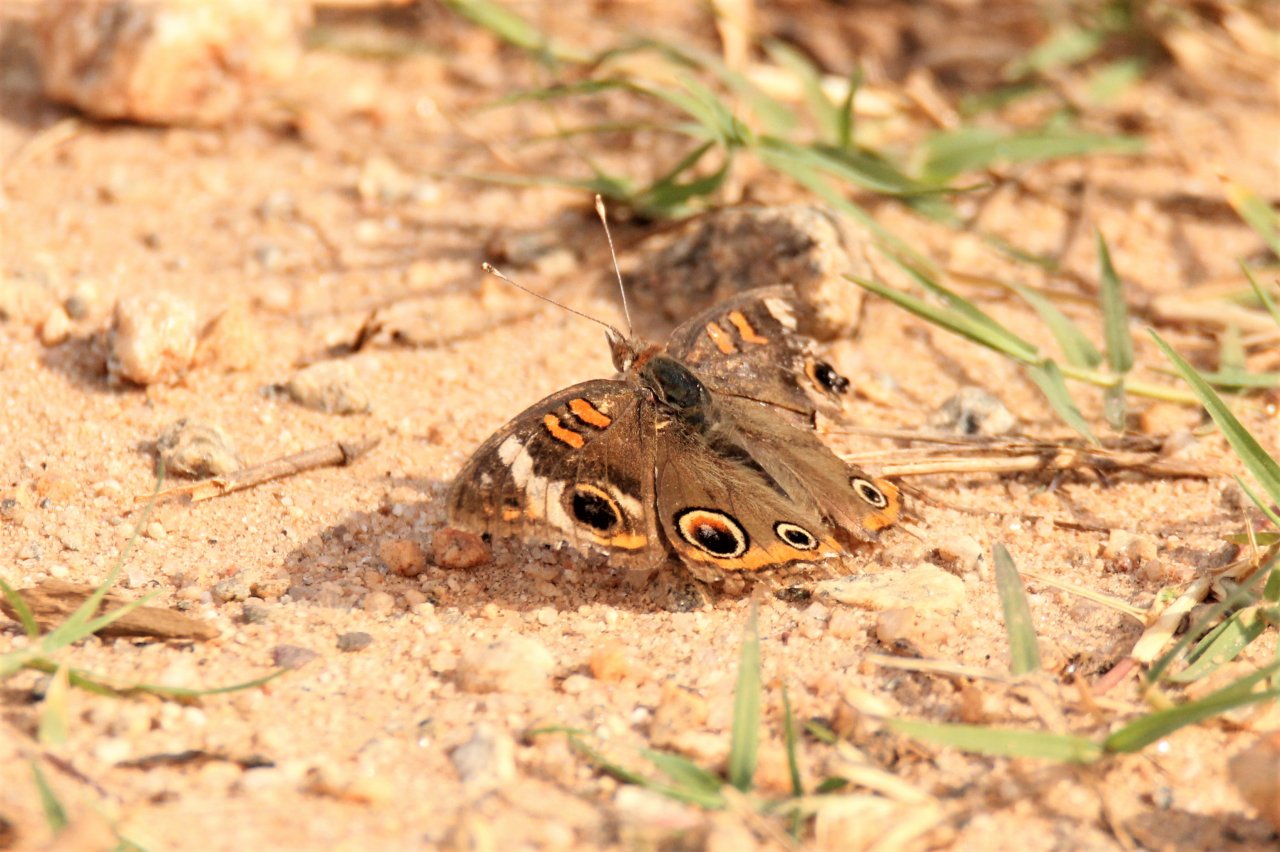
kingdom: Animalia
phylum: Arthropoda
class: Insecta
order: Lepidoptera
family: Nymphalidae
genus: Junonia
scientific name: Junonia coenia
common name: Common Buckeye
